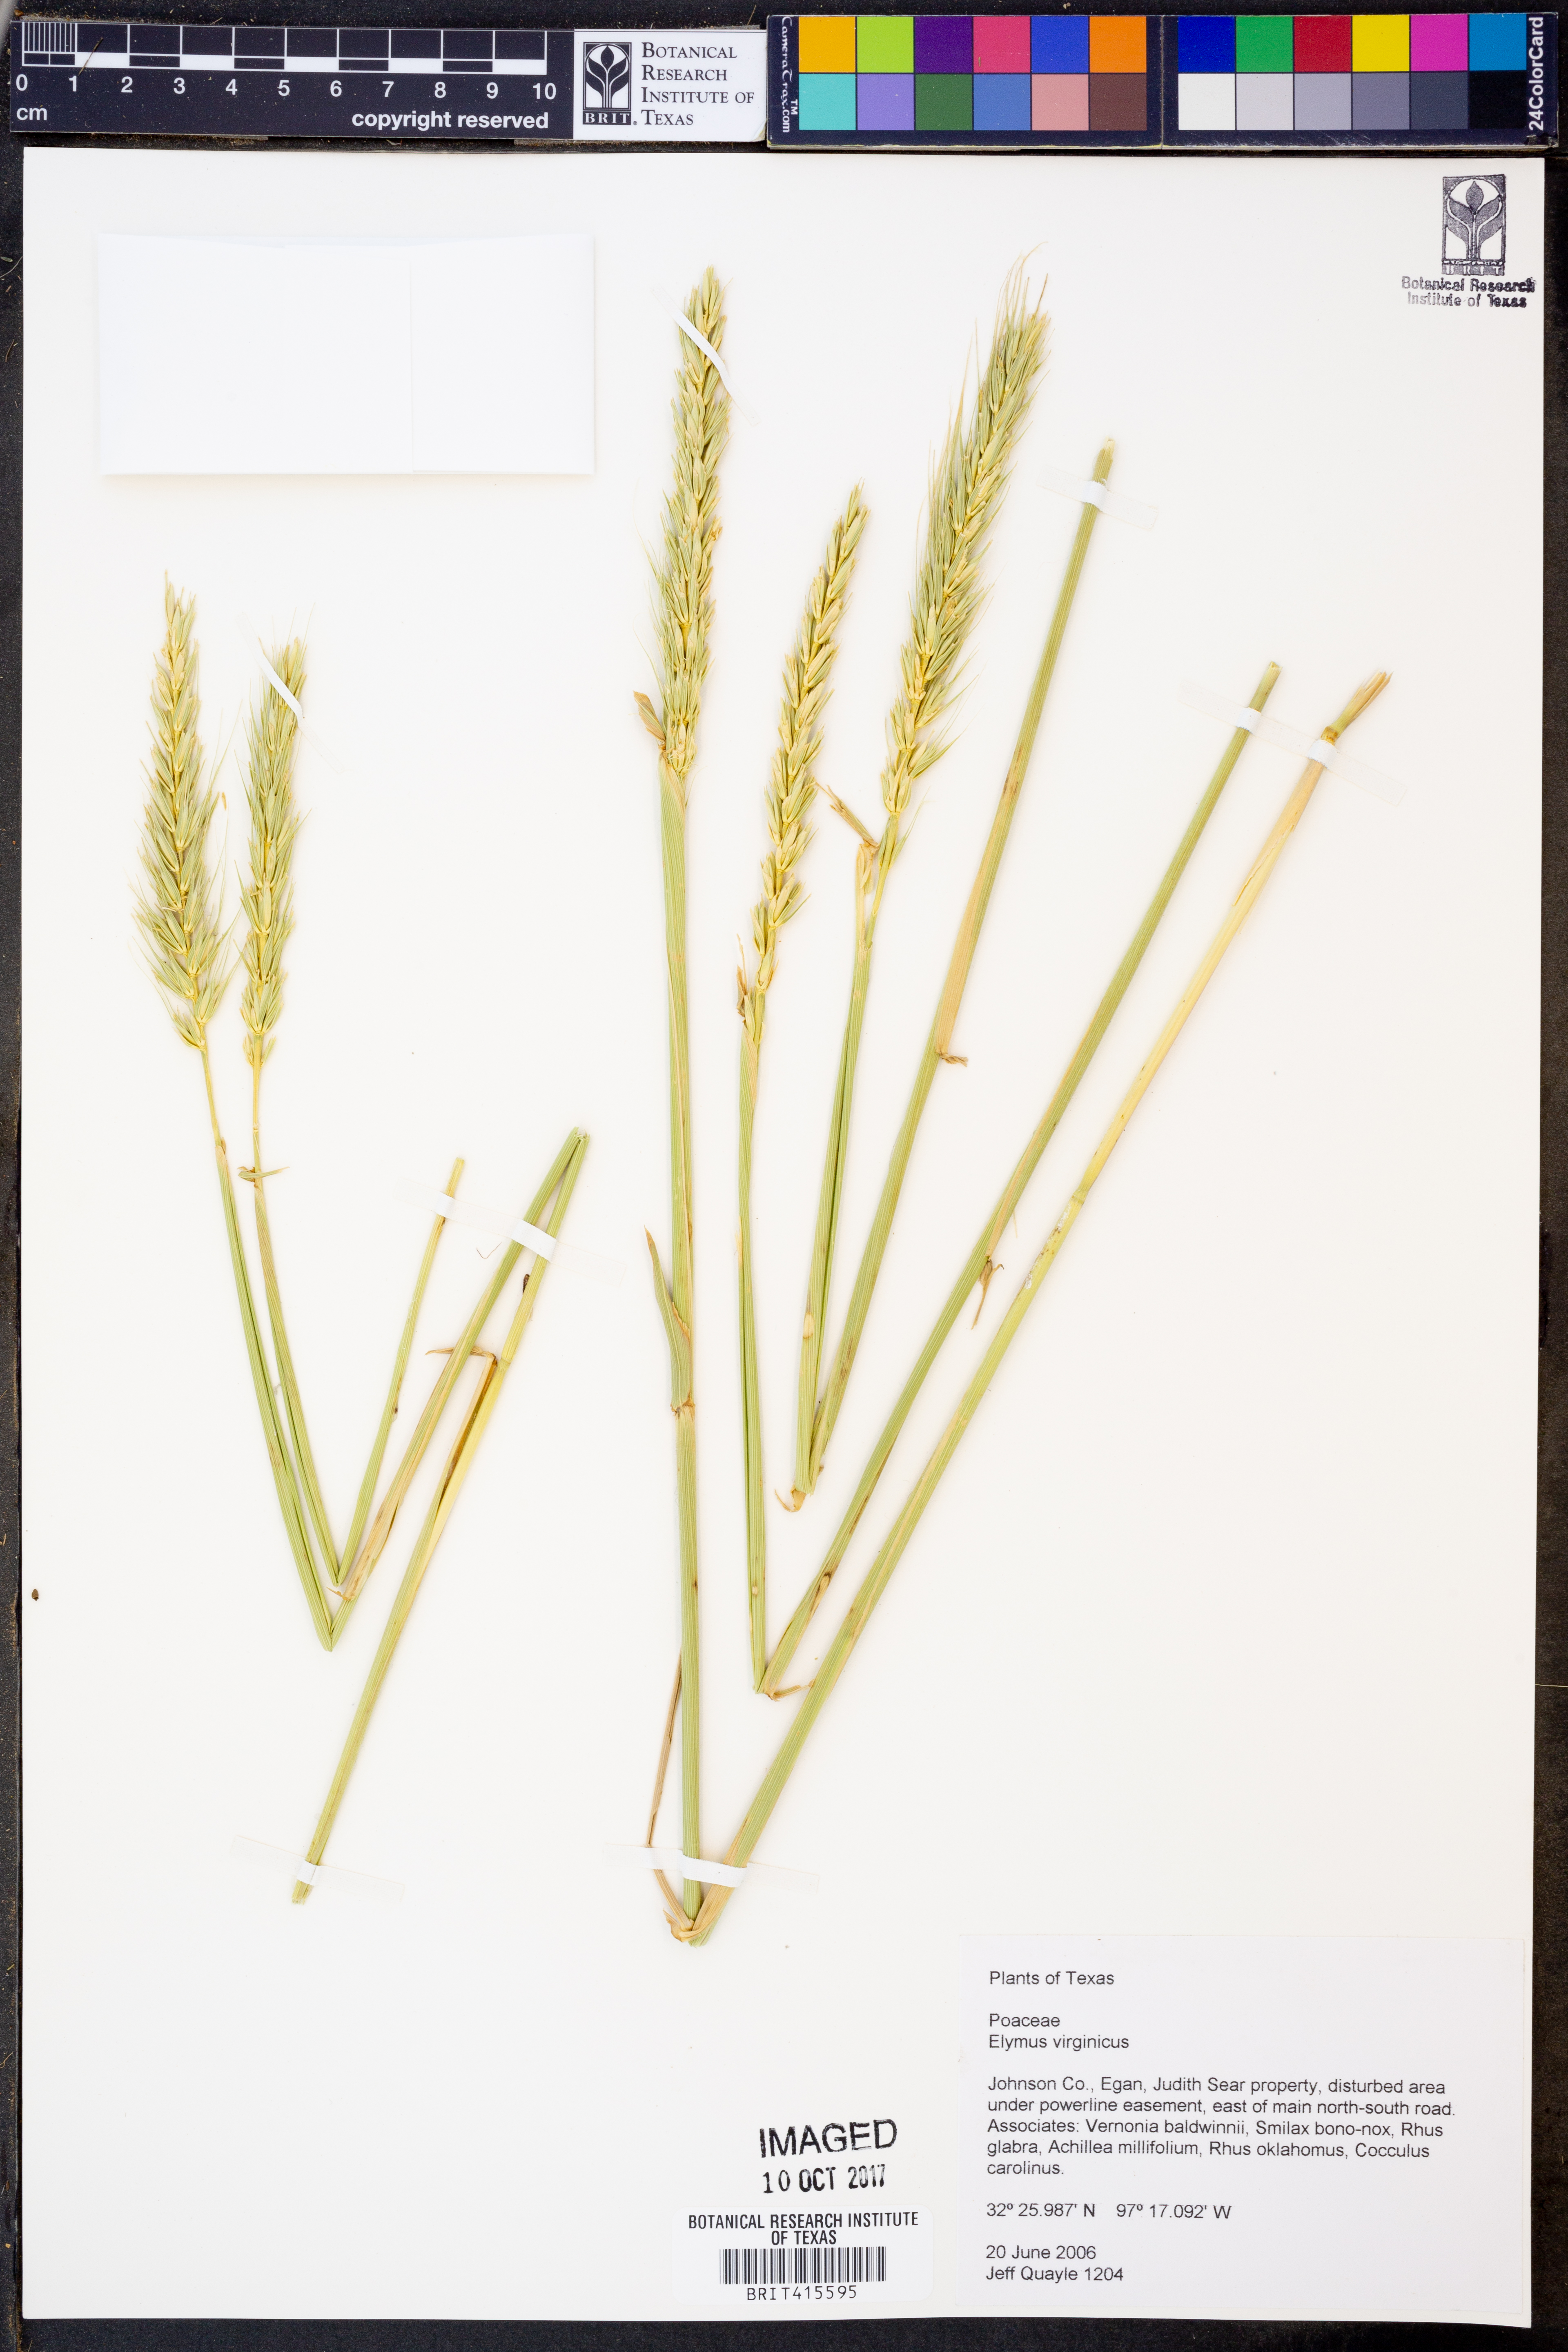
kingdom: Plantae
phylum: Tracheophyta
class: Liliopsida
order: Poales
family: Poaceae
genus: Elymus
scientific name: Elymus virginicus
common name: Common eastern wildrye
